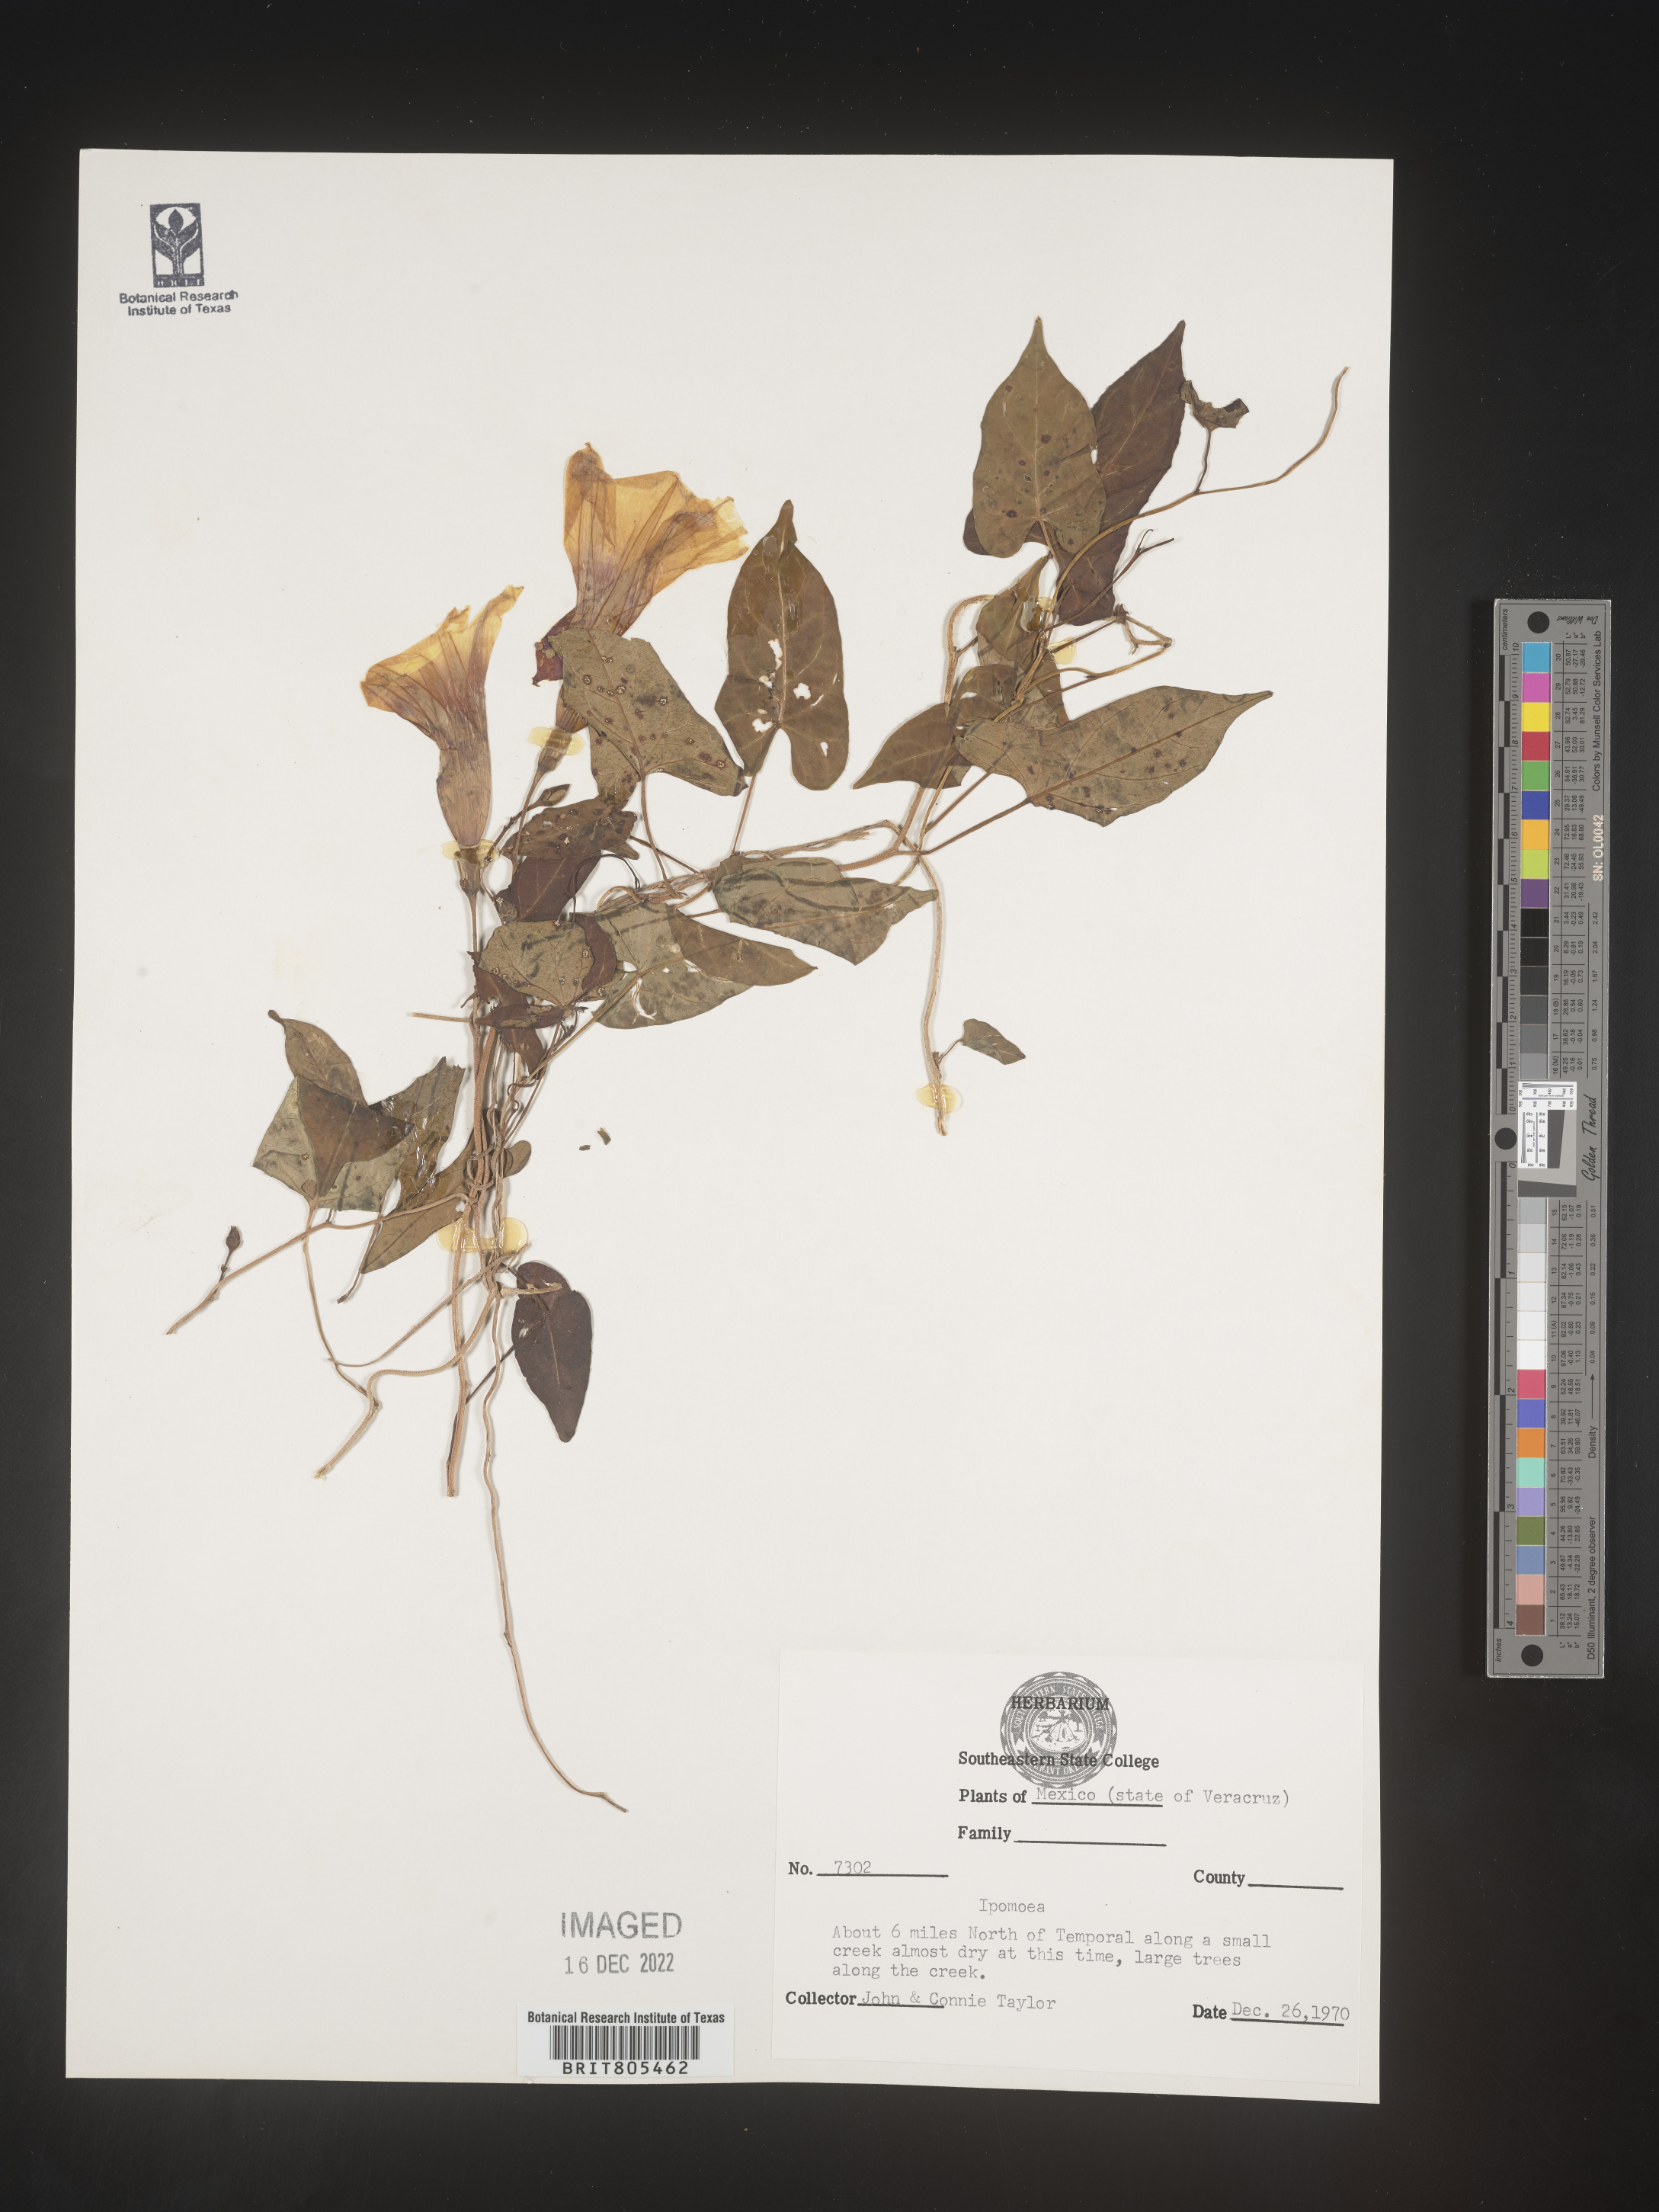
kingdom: Plantae
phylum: Tracheophyta
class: Magnoliopsida
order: Solanales
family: Convolvulaceae
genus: Ipomoea
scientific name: Ipomoea
